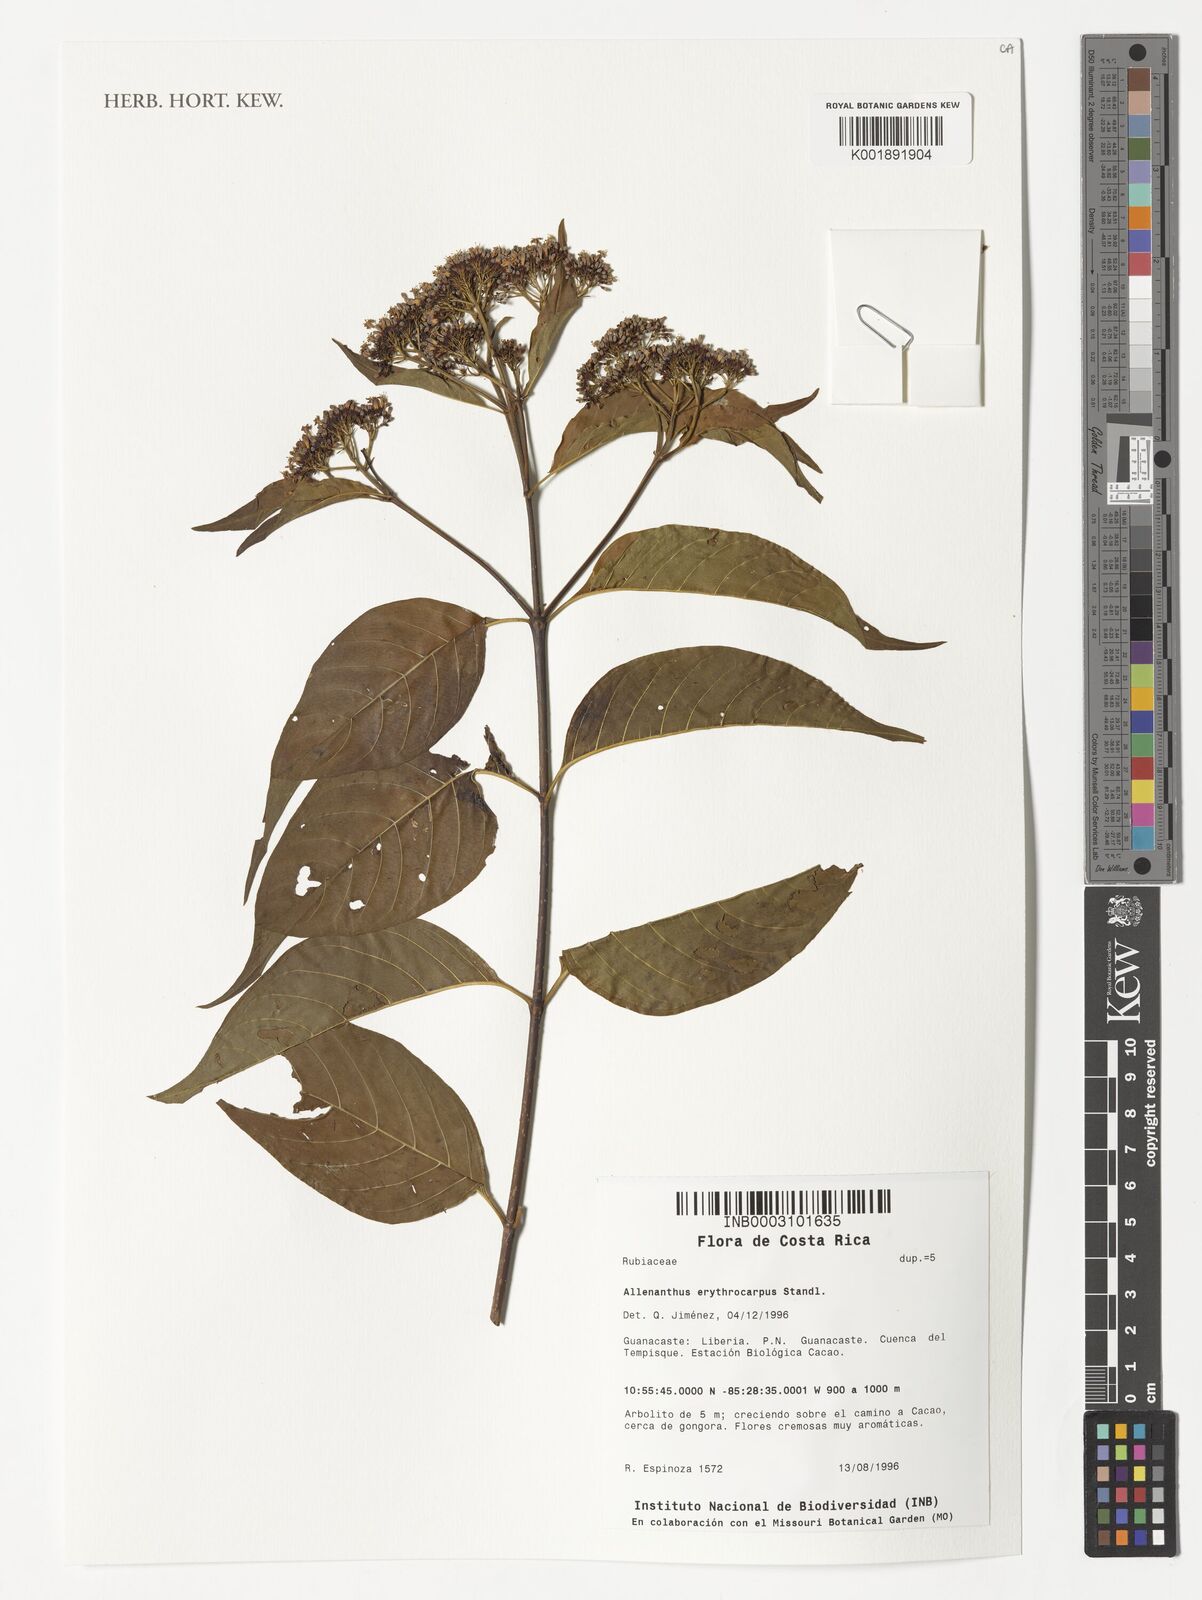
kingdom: Plantae
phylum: Tracheophyta
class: Magnoliopsida
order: Gentianales
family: Rubiaceae
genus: Machaonia
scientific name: Machaonia erythrocarpa
